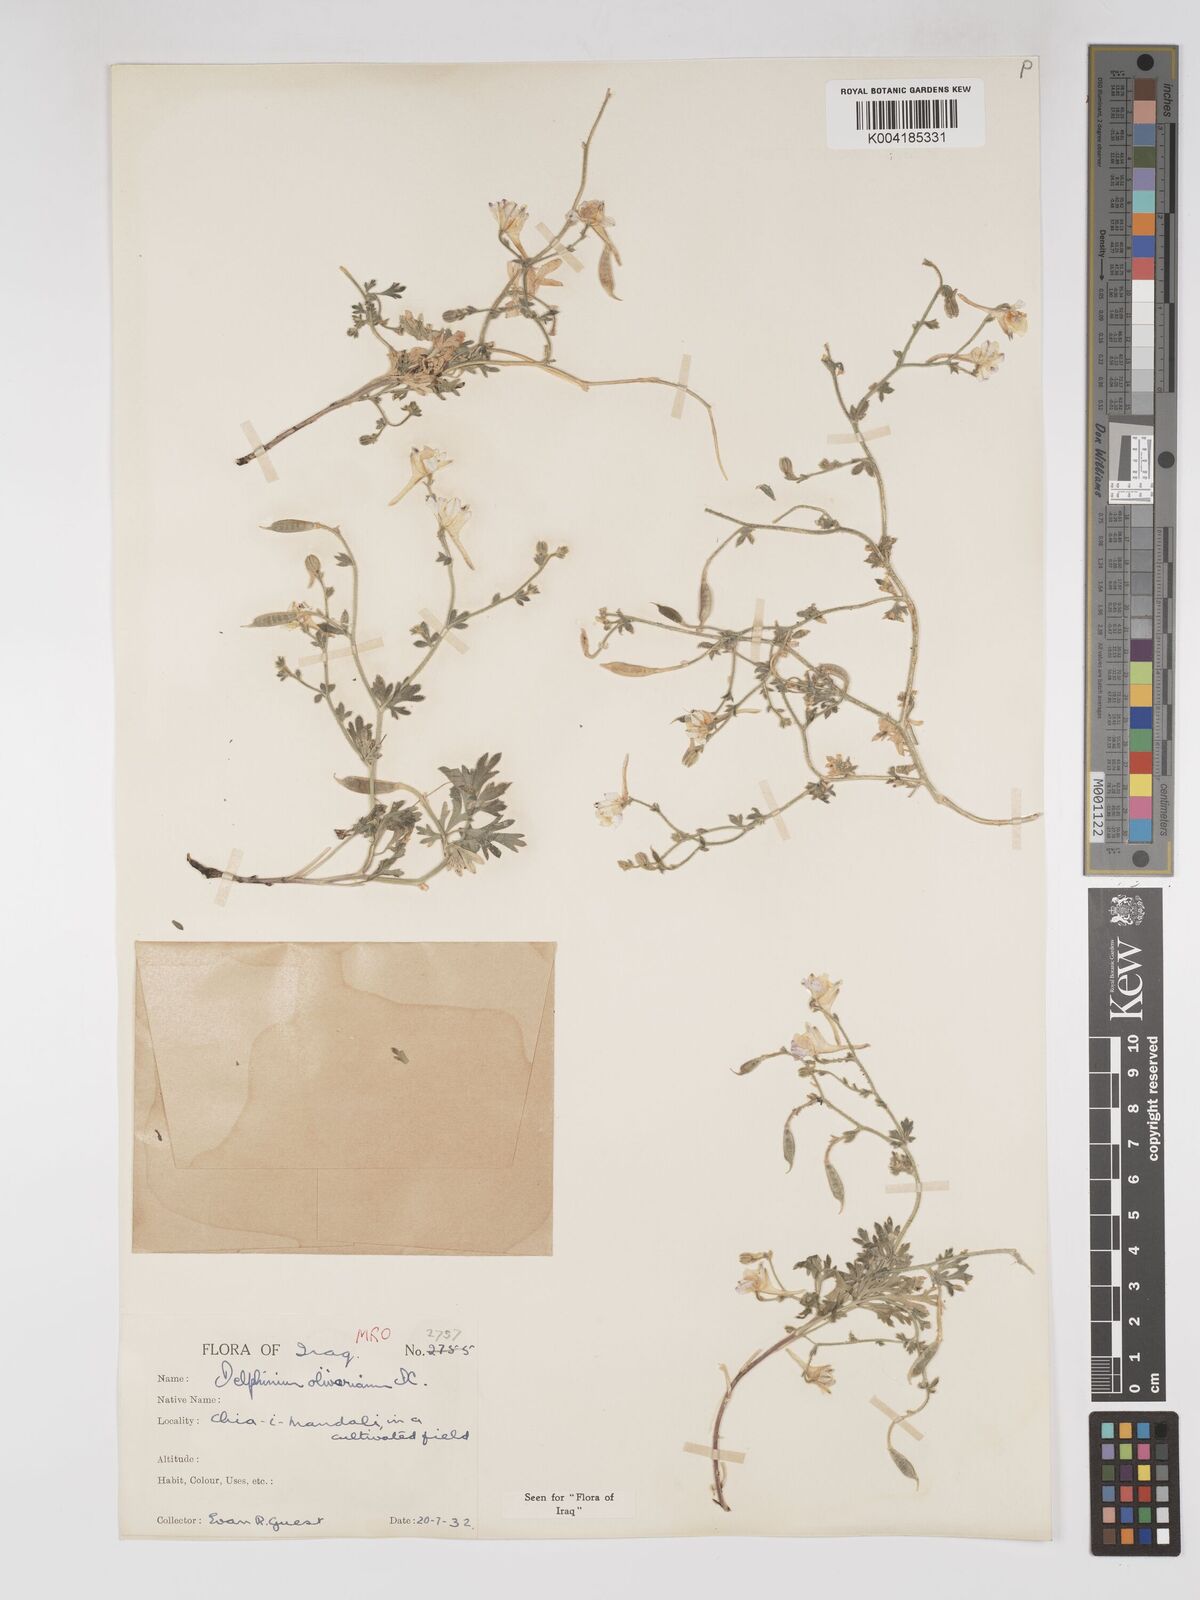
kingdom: Plantae
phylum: Tracheophyta
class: Magnoliopsida
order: Ranunculales
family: Ranunculaceae
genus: Delphinium
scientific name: Delphinium oliverianum
